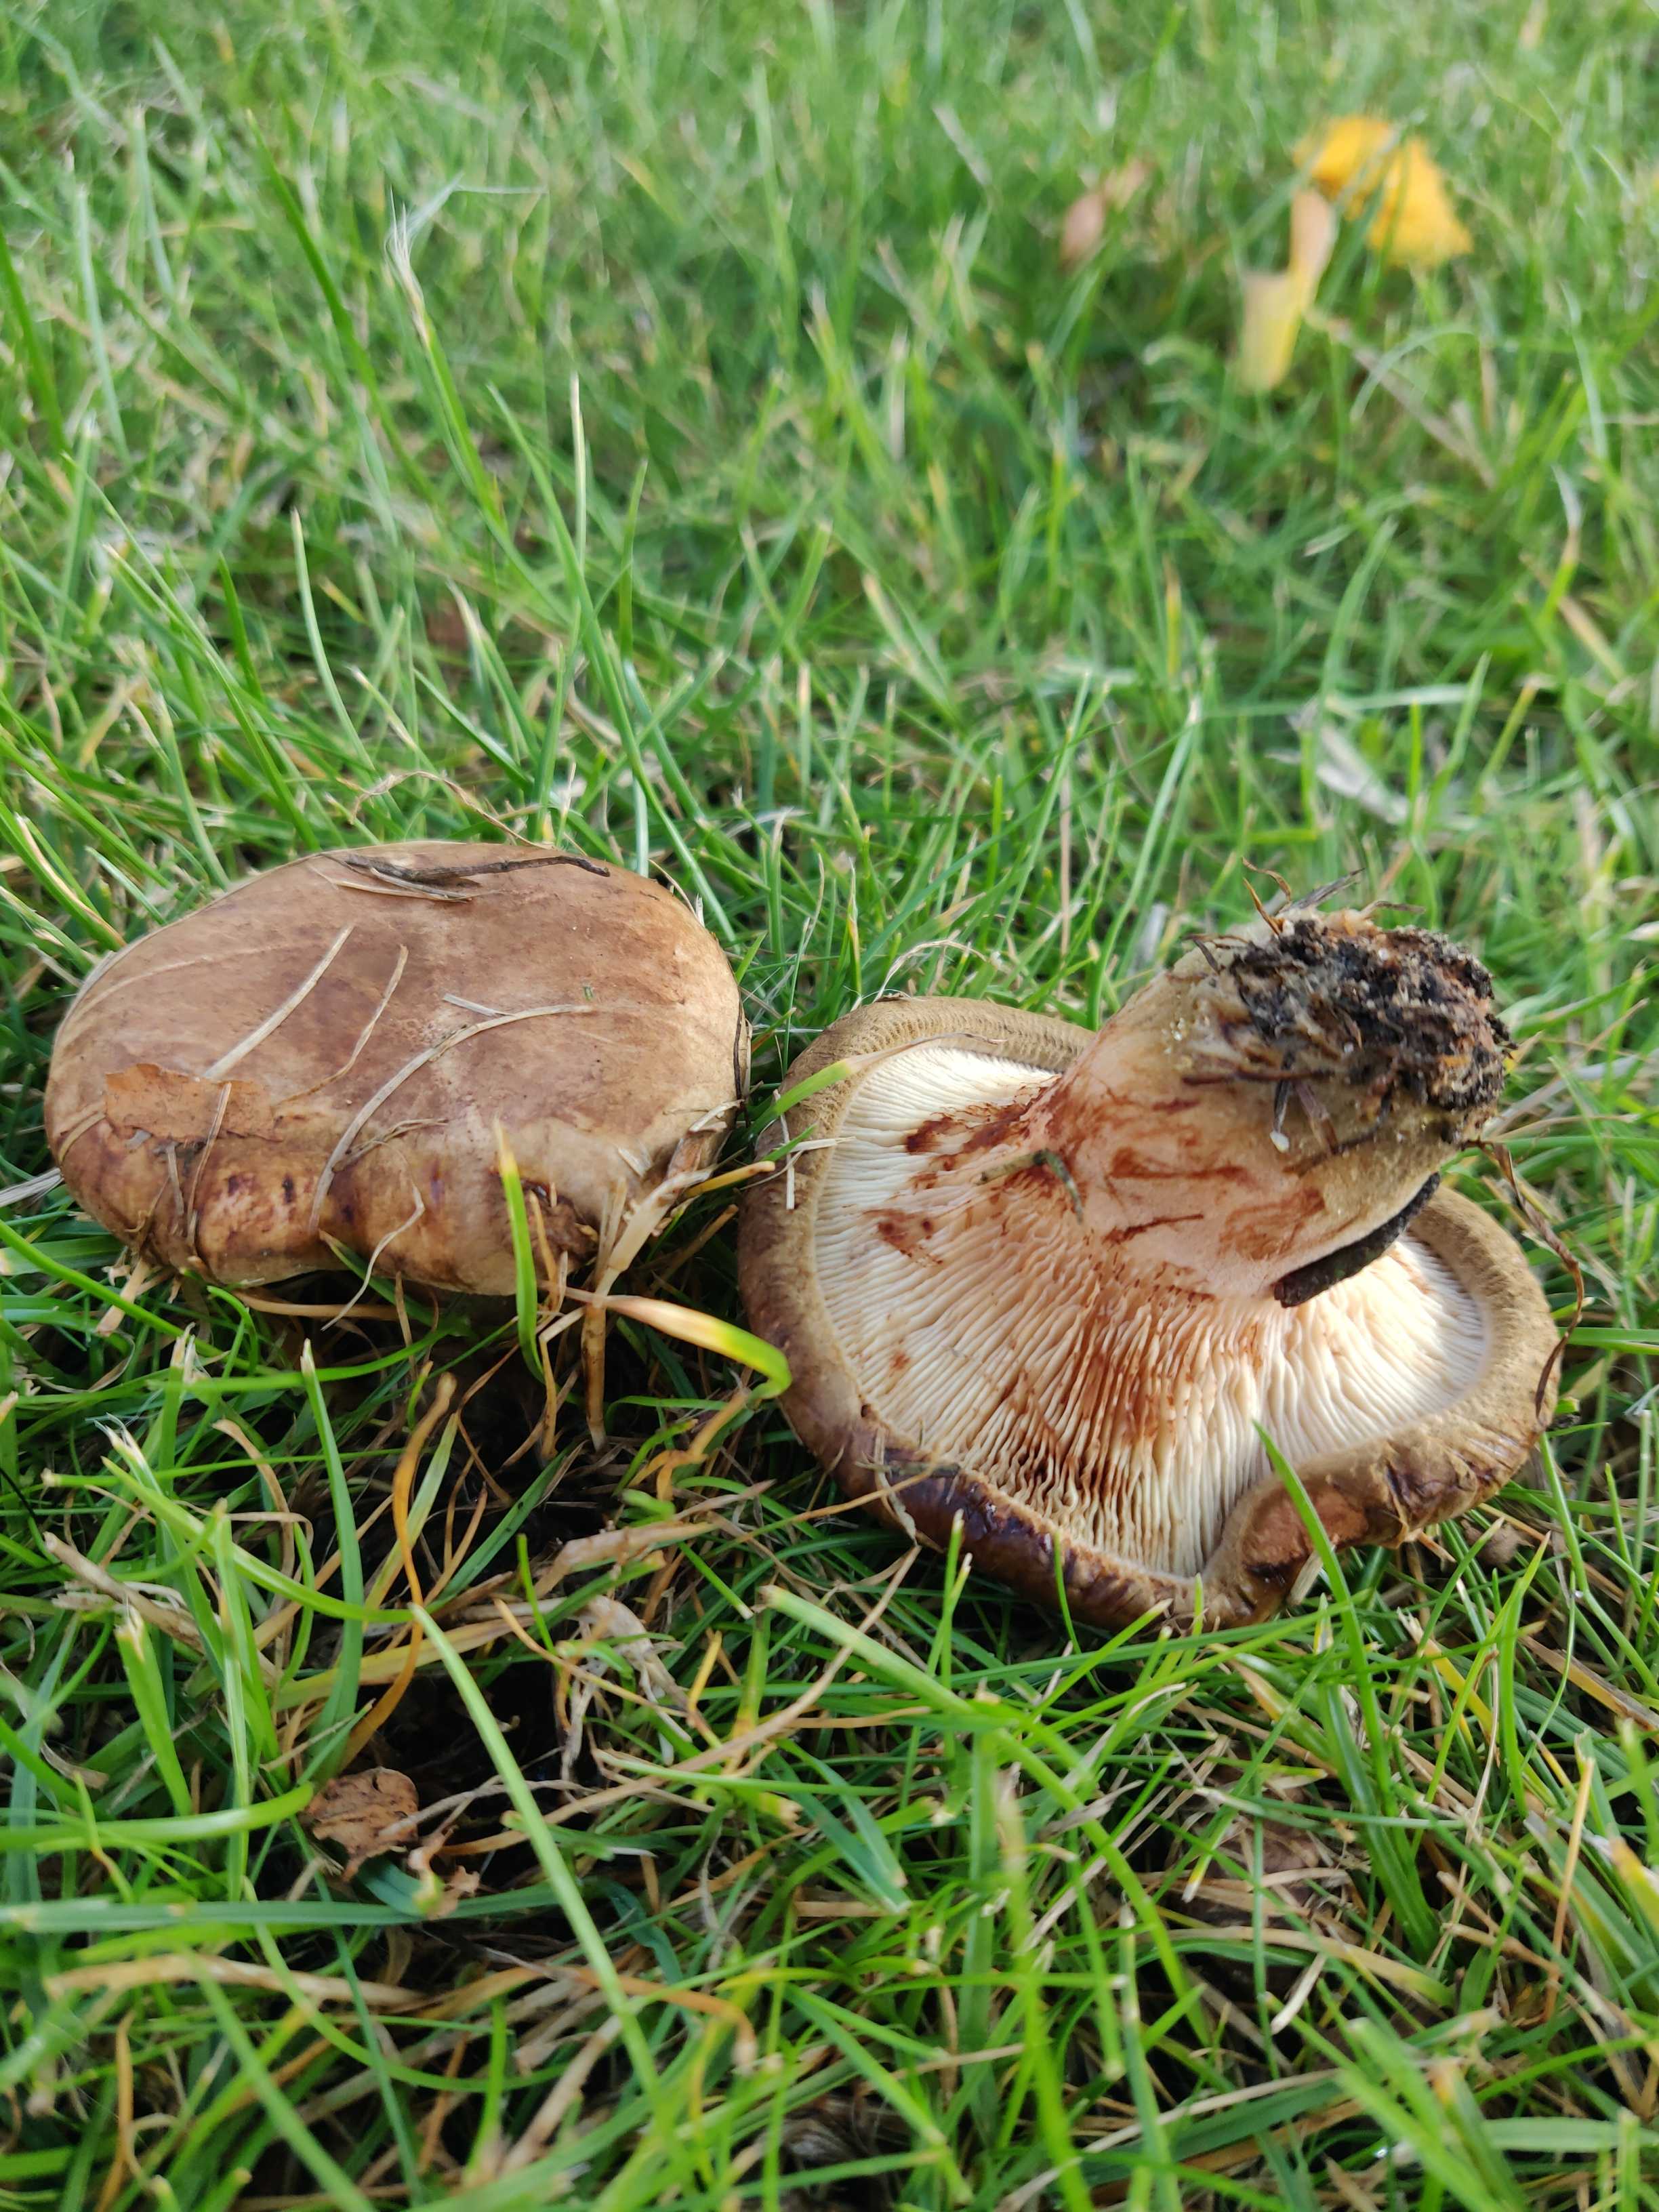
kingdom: Fungi
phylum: Basidiomycota
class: Agaricomycetes
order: Boletales
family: Paxillaceae
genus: Paxillus
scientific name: Paxillus
